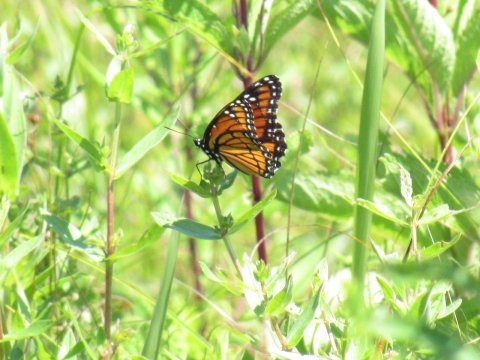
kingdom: Animalia
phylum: Arthropoda
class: Insecta
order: Lepidoptera
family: Nymphalidae
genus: Limenitis
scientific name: Limenitis archippus
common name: Viceroy
